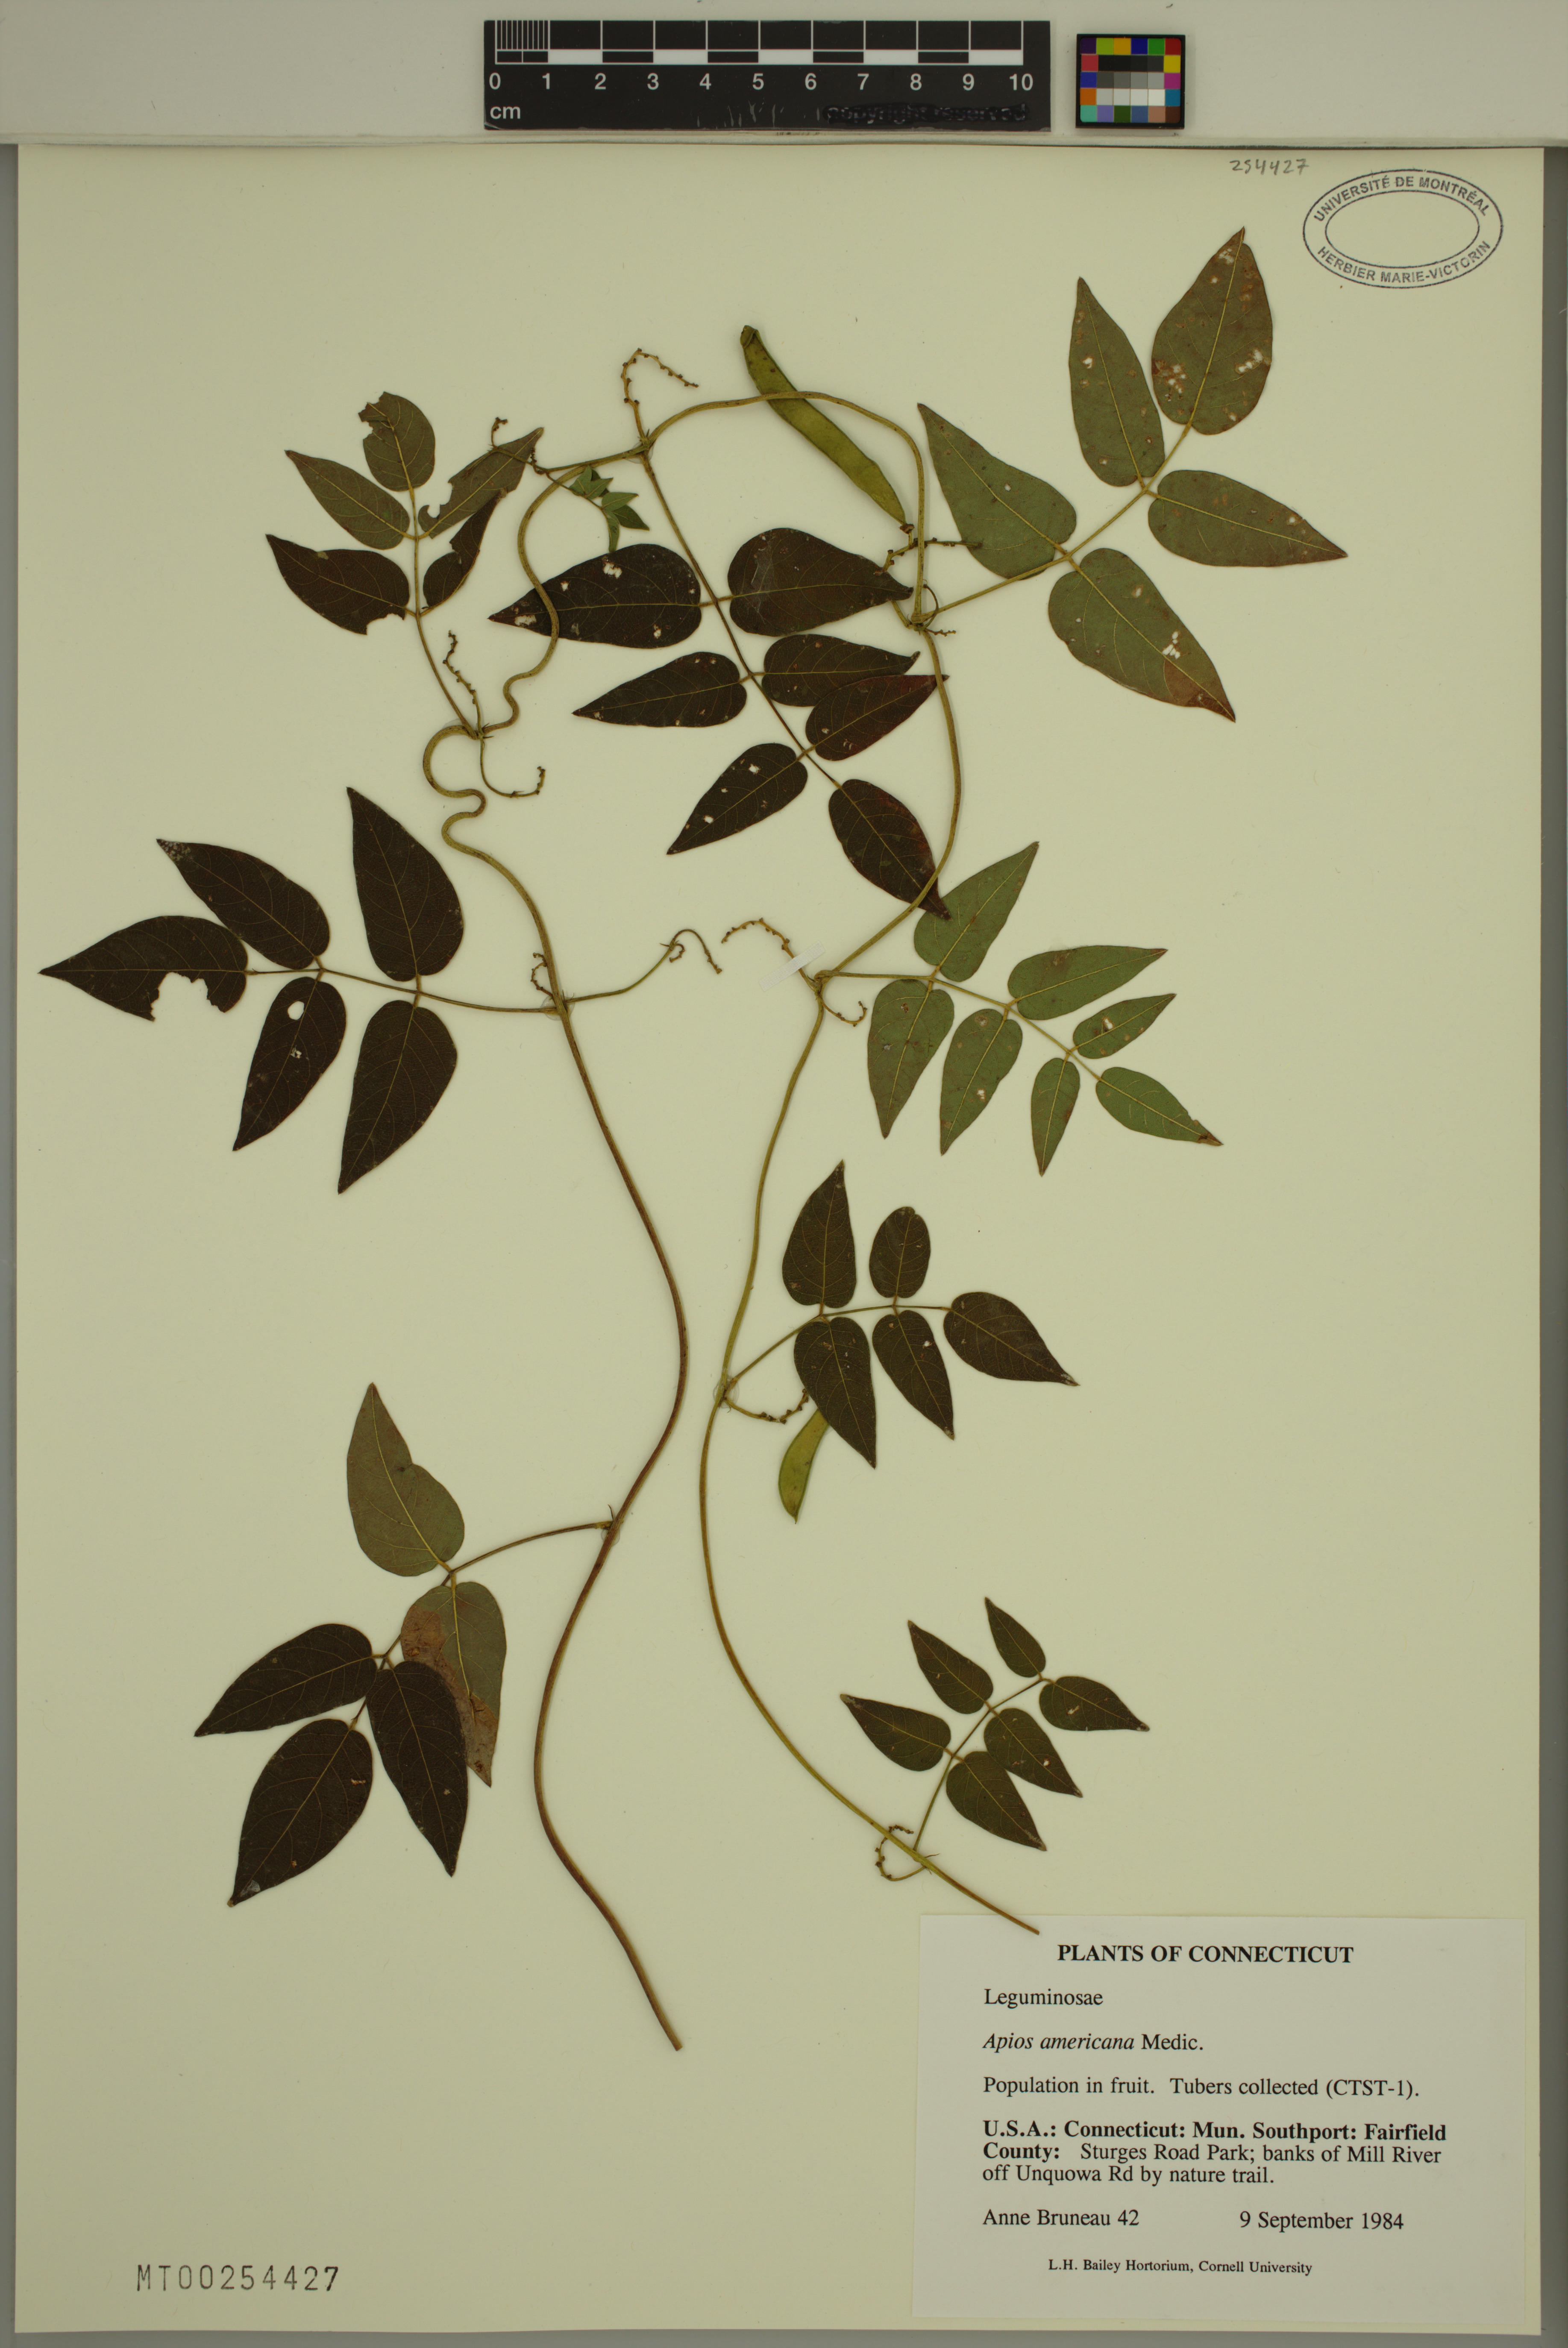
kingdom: Plantae
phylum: Tracheophyta
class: Magnoliopsida
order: Fabales
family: Fabaceae
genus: Apios
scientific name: Apios americana
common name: American potato-bean
